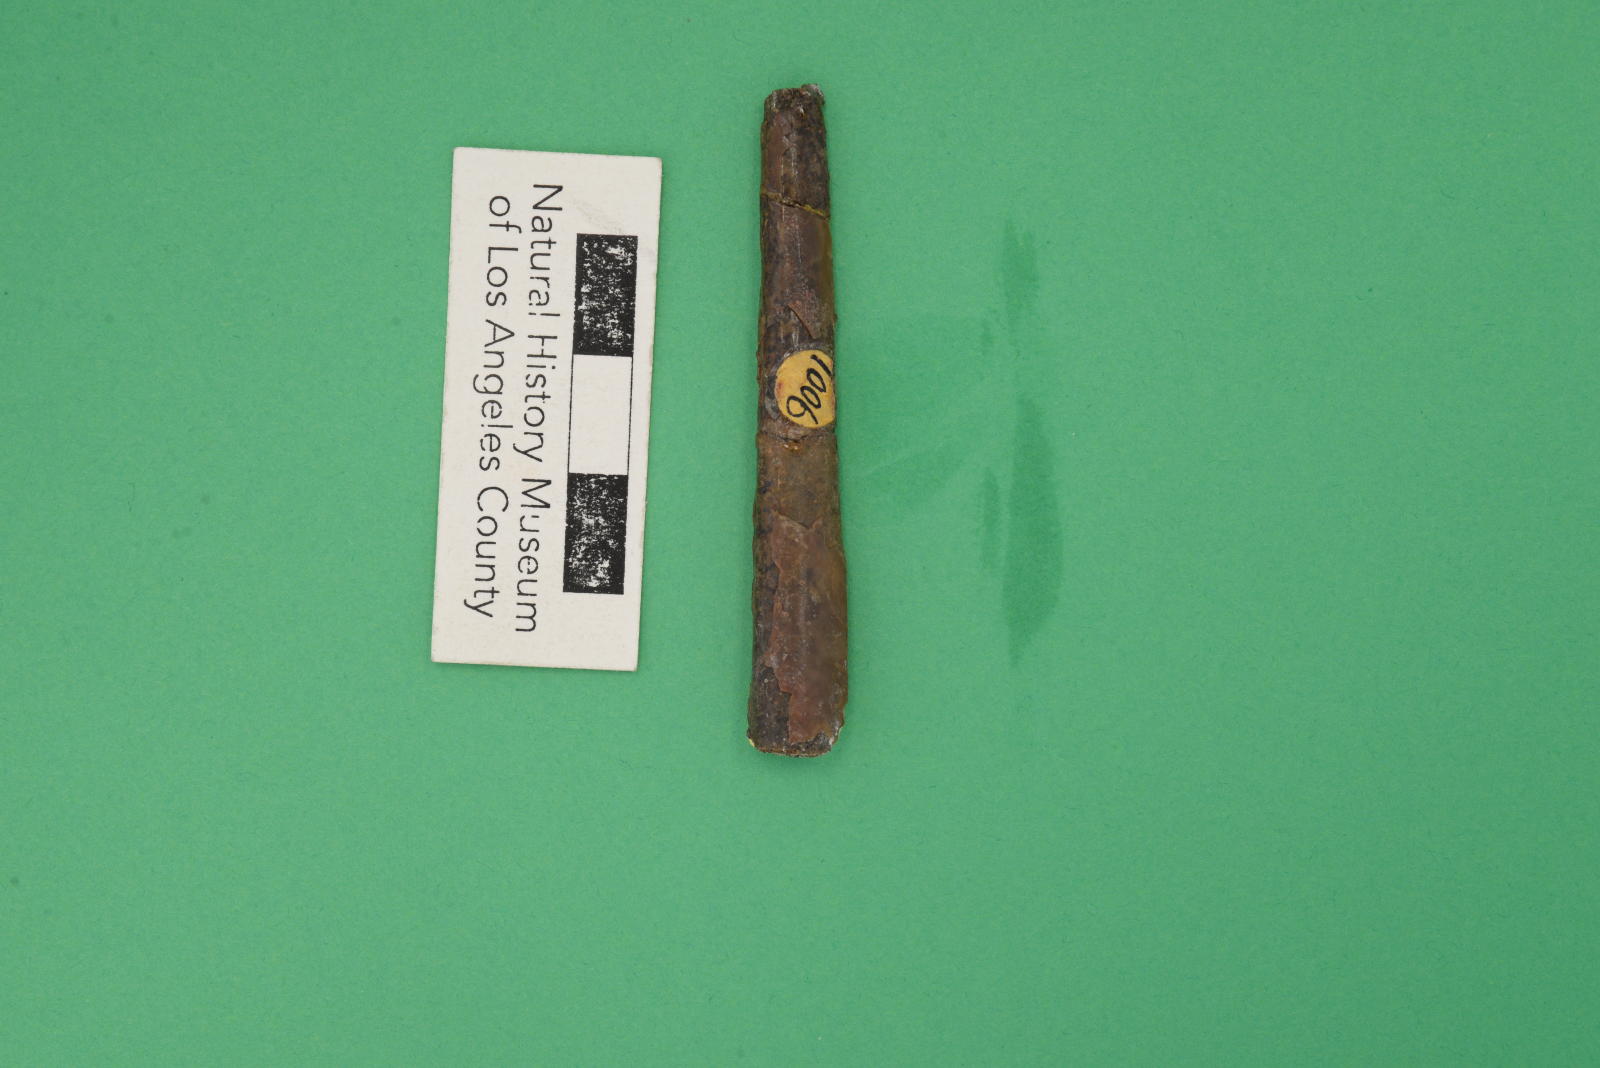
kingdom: Animalia
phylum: Mollusca
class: Cephalopoda
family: Baculitidae
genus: Baculites
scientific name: Baculites kirki
